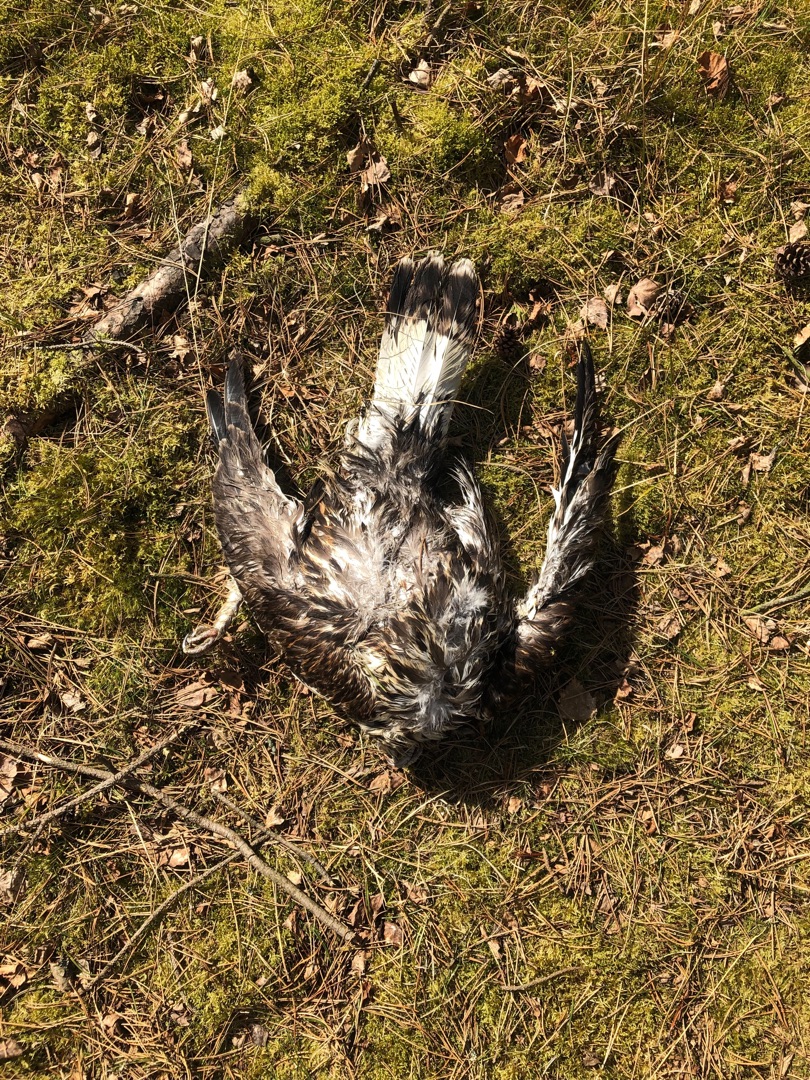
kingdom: Animalia
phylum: Chordata
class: Aves
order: Accipitriformes
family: Accipitridae
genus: Buteo
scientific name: Buteo lagopus
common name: Fjeldvåge
